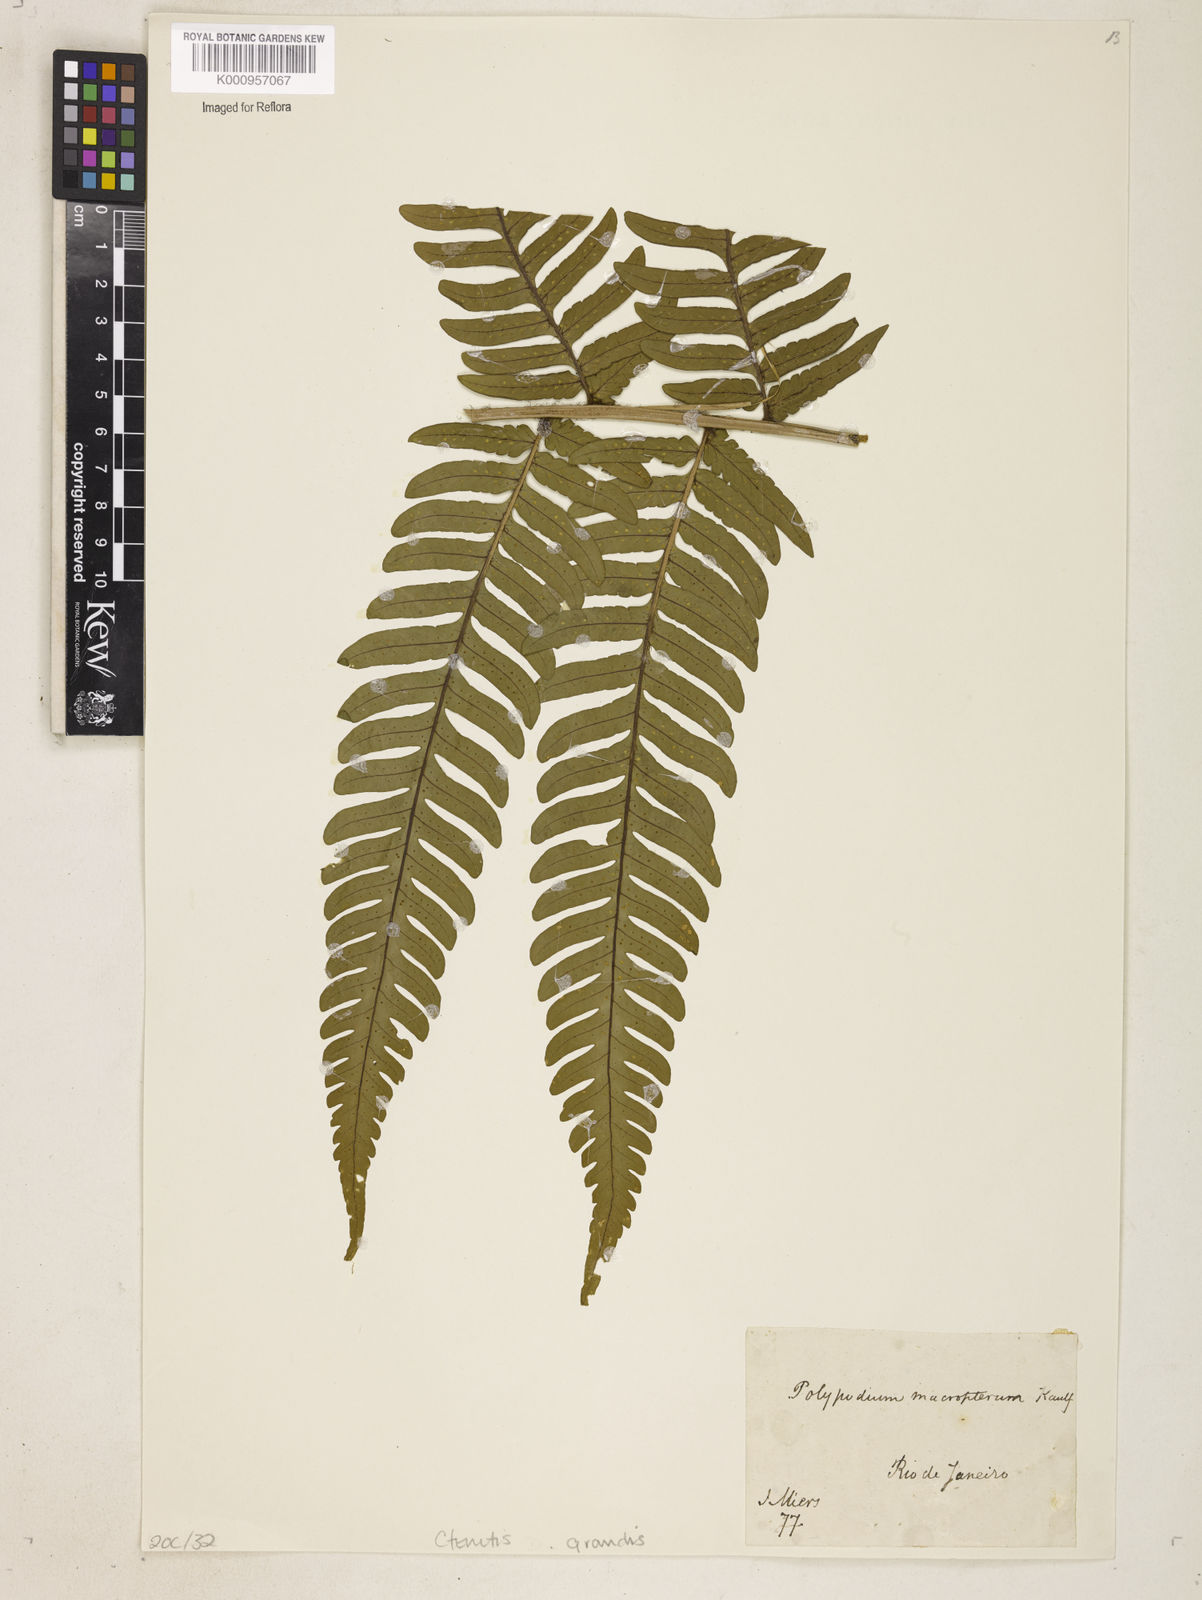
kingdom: Plantae
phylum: Tracheophyta
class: Polypodiopsida
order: Polypodiales
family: Dryopteridaceae
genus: Megalastrum
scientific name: Megalastrum grande
